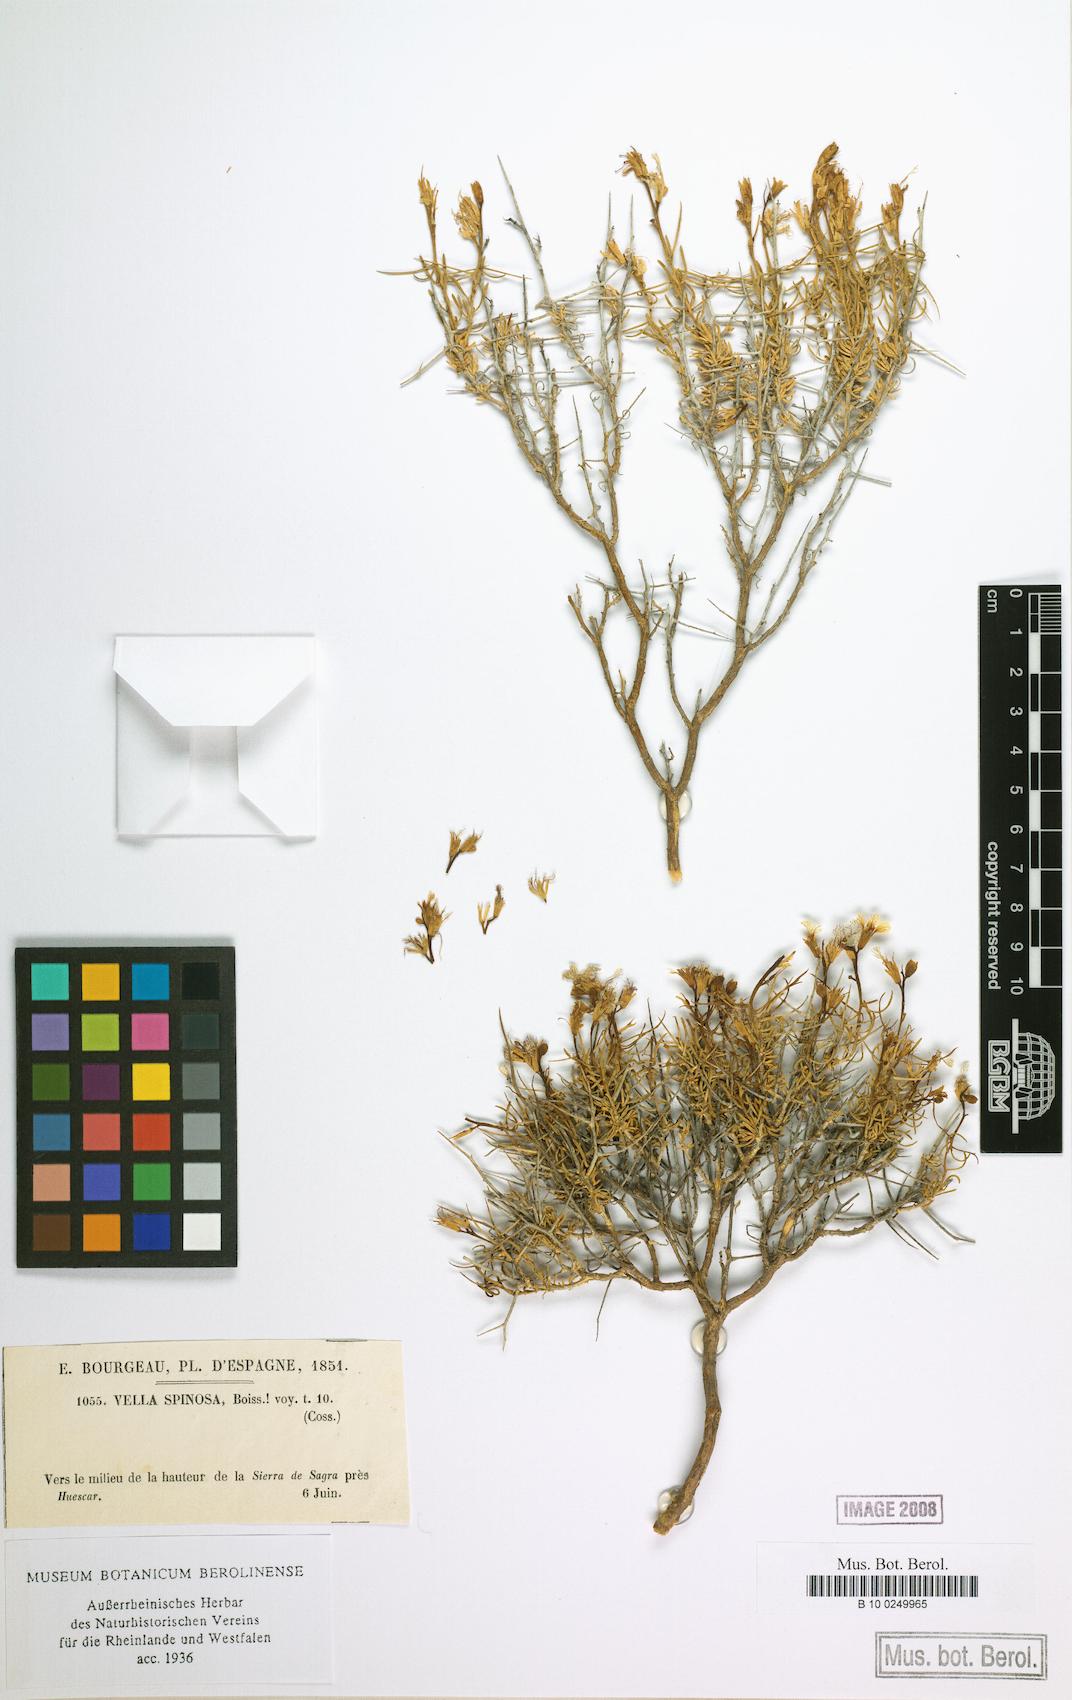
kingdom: Plantae
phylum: Tracheophyta
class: Magnoliopsida
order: Brassicales
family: Brassicaceae
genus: Vella
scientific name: Vella spinosa
